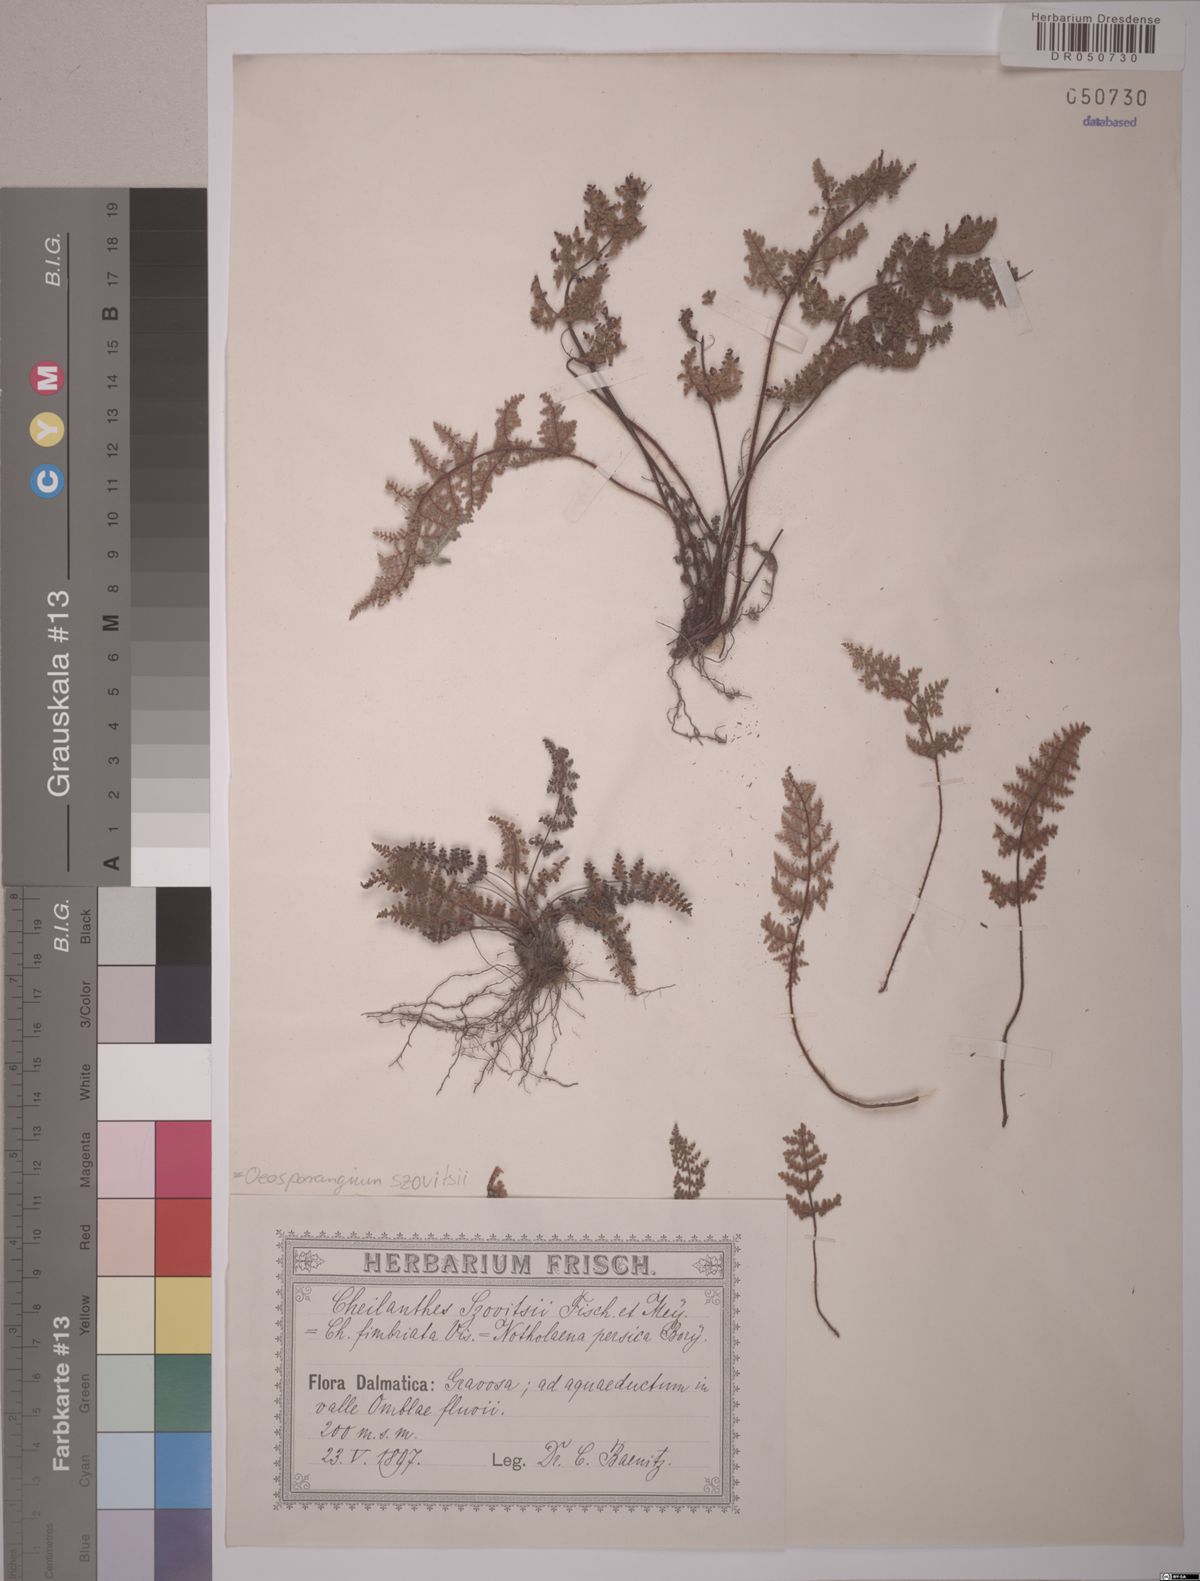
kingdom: Plantae
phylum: Tracheophyta
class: Polypodiopsida
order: Polypodiales
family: Pteridaceae
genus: Oeosporangium
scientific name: Oeosporangium persicum
